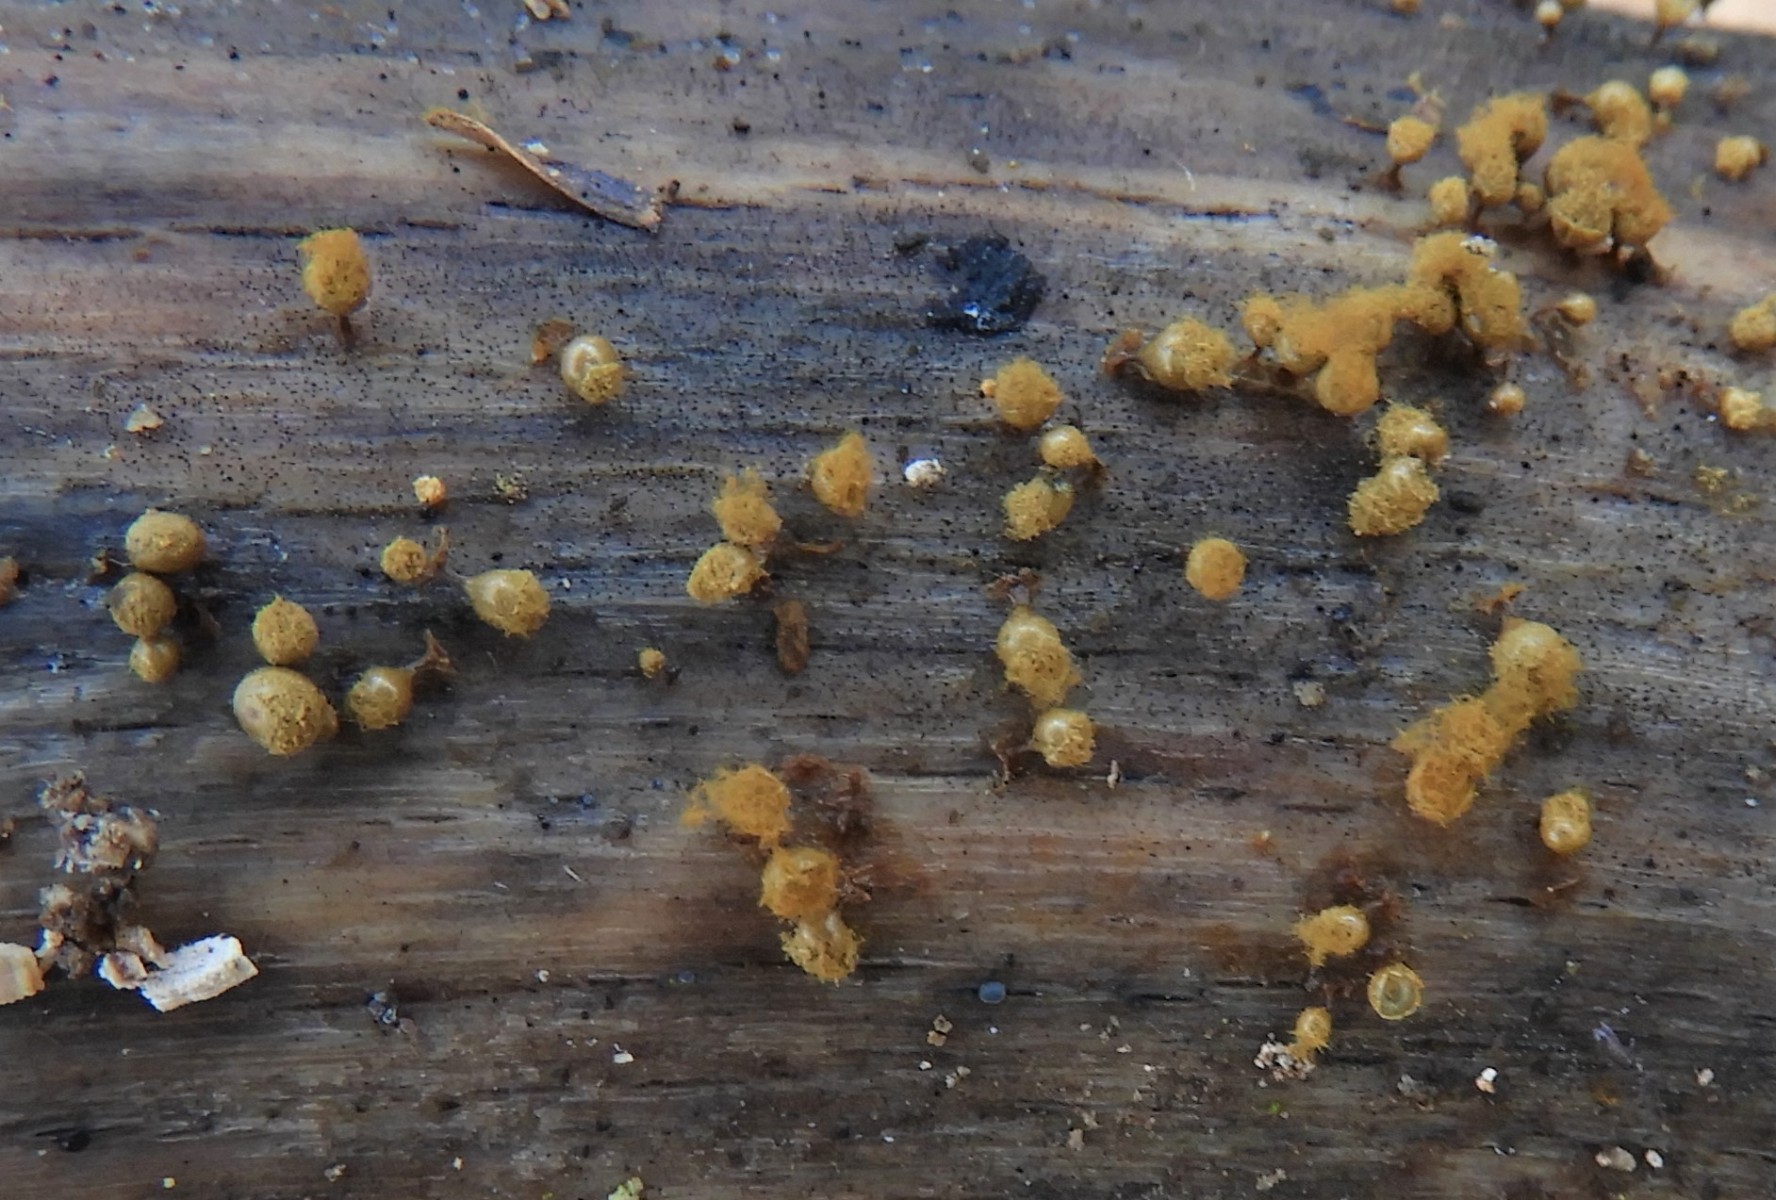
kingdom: Protozoa
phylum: Mycetozoa
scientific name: Mycetozoa
